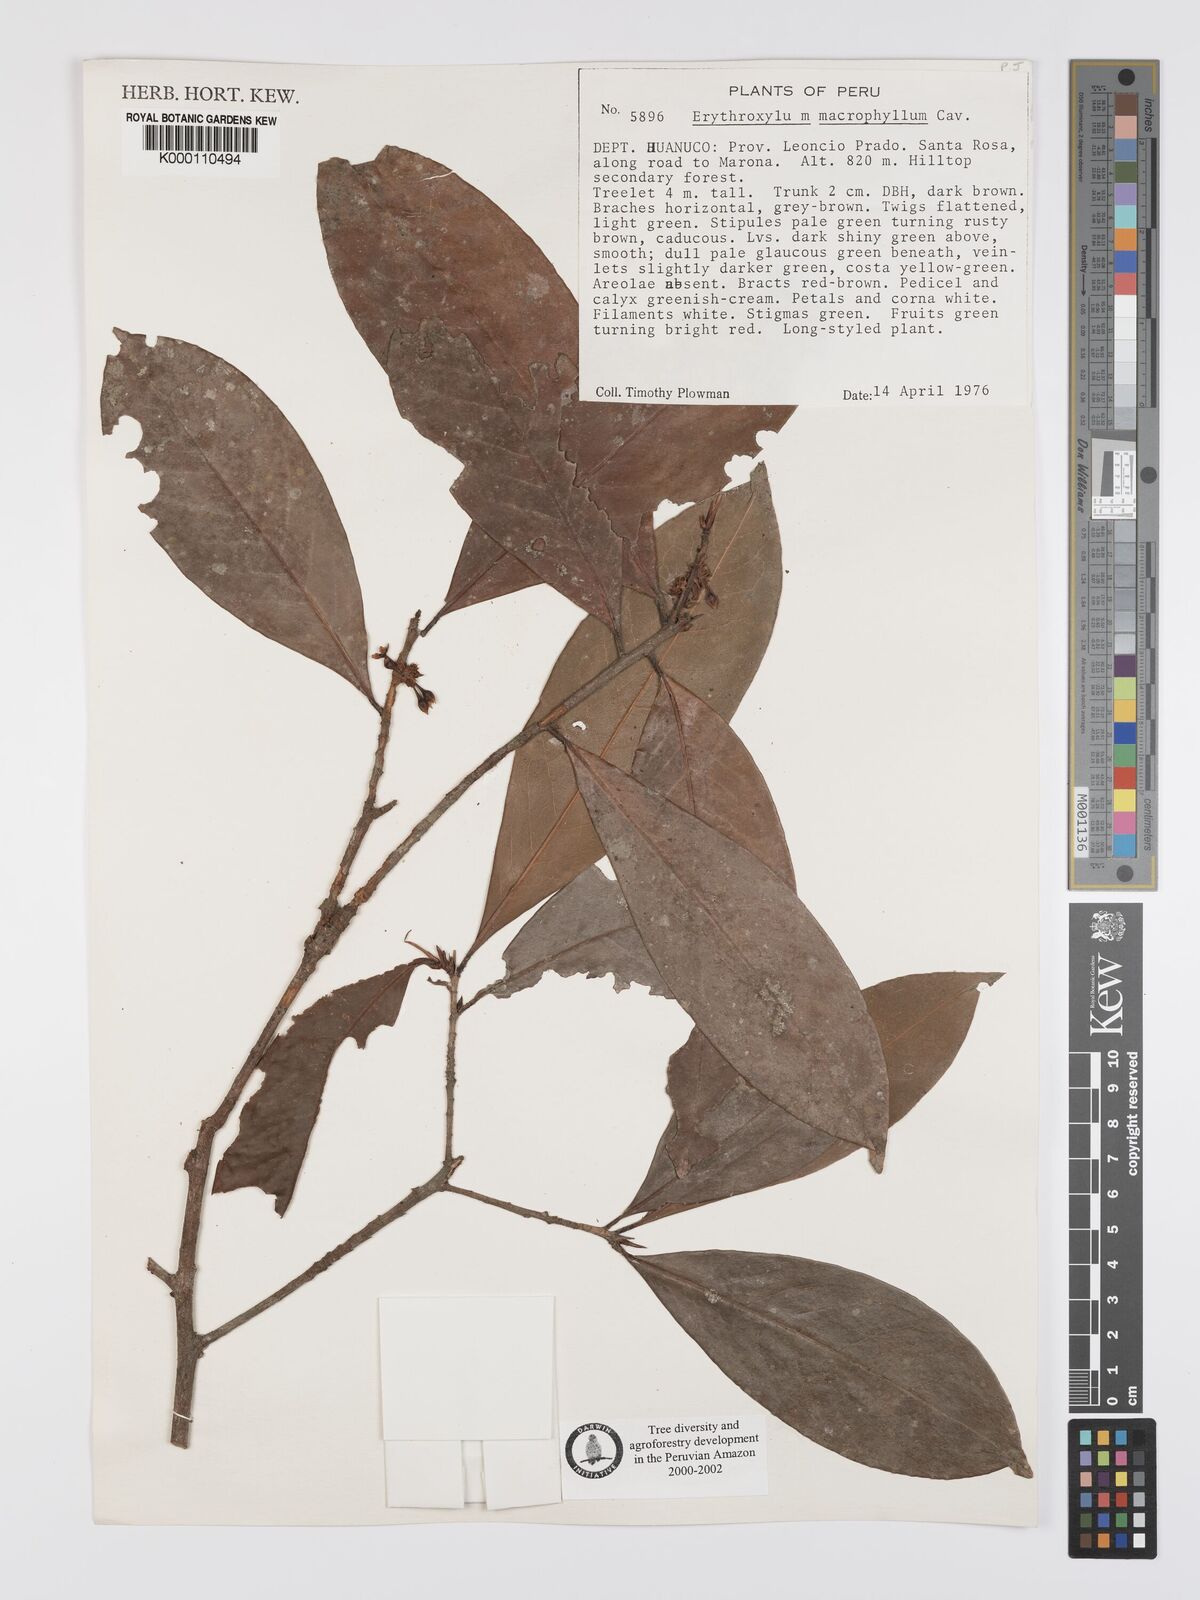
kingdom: Plantae
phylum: Tracheophyta
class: Magnoliopsida
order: Malpighiales
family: Erythroxylaceae
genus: Erythroxylum
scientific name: Erythroxylum
